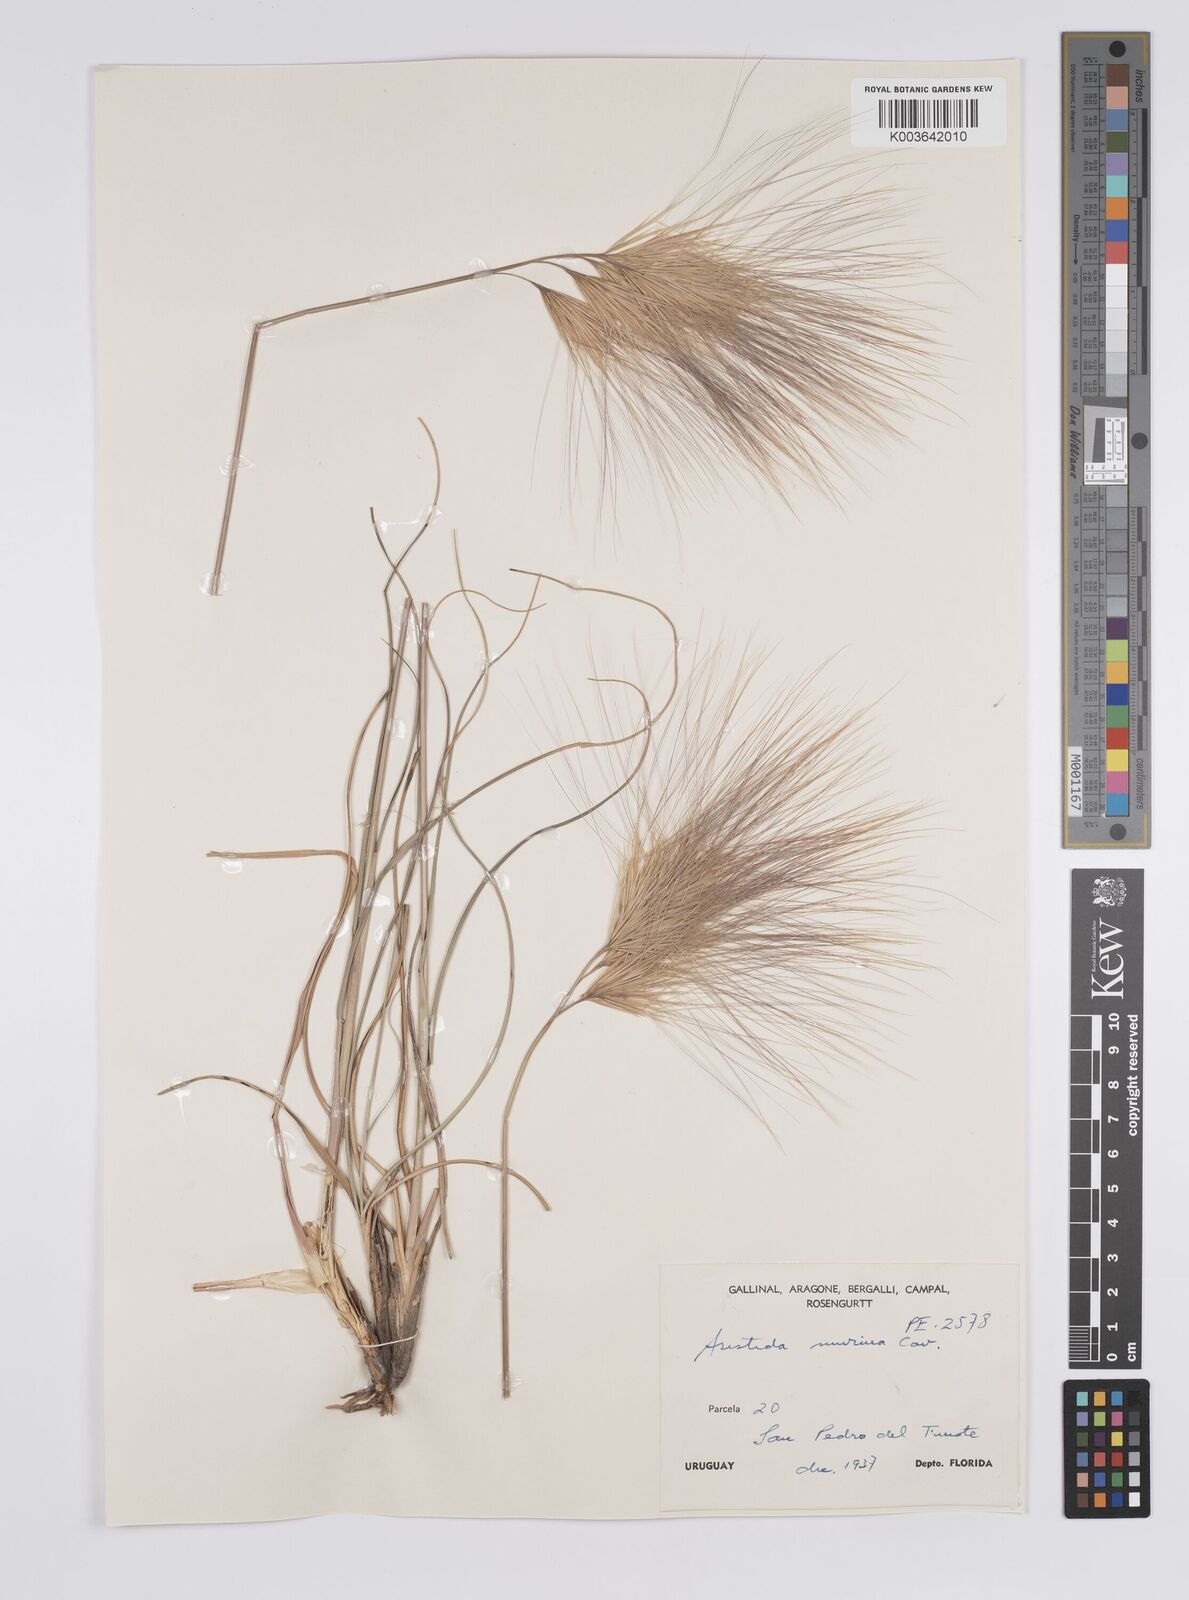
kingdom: Plantae
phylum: Tracheophyta
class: Liliopsida
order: Poales
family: Poaceae
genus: Aristida
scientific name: Aristida murina
